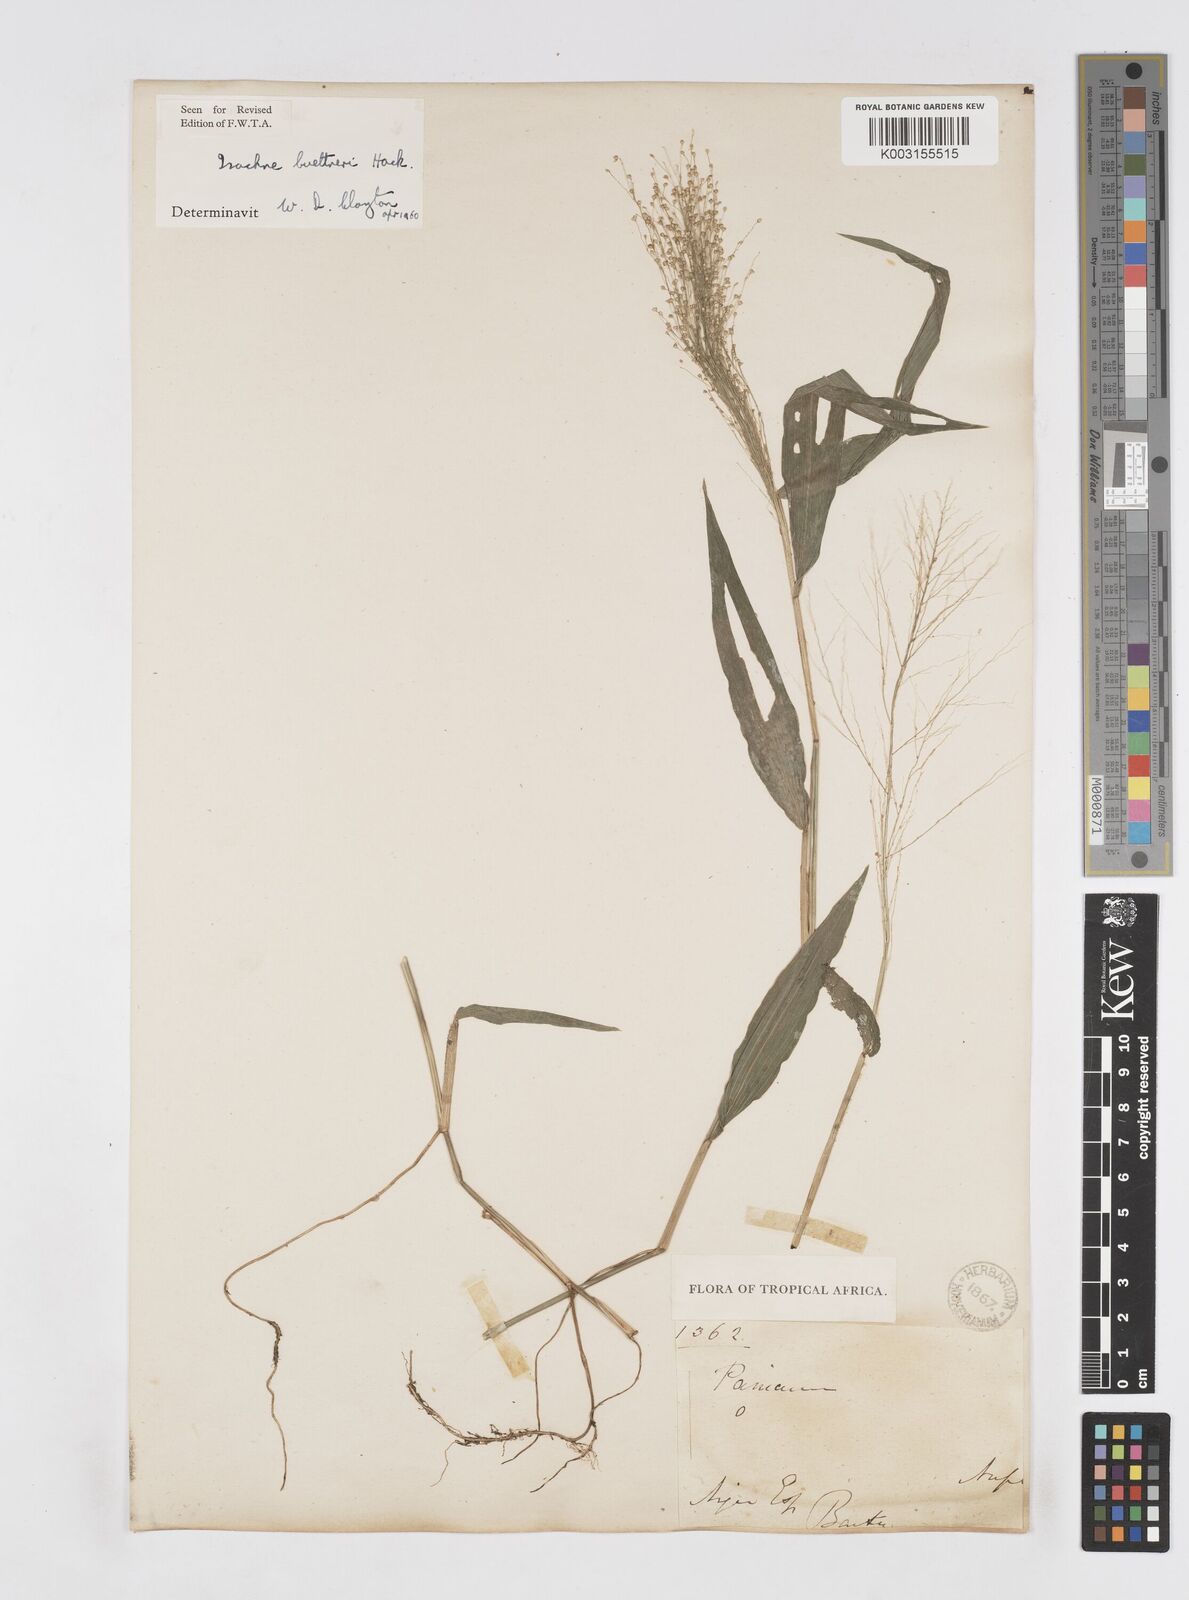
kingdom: Plantae
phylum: Tracheophyta
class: Liliopsida
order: Poales
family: Poaceae
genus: Isachne
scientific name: Isachne albens
